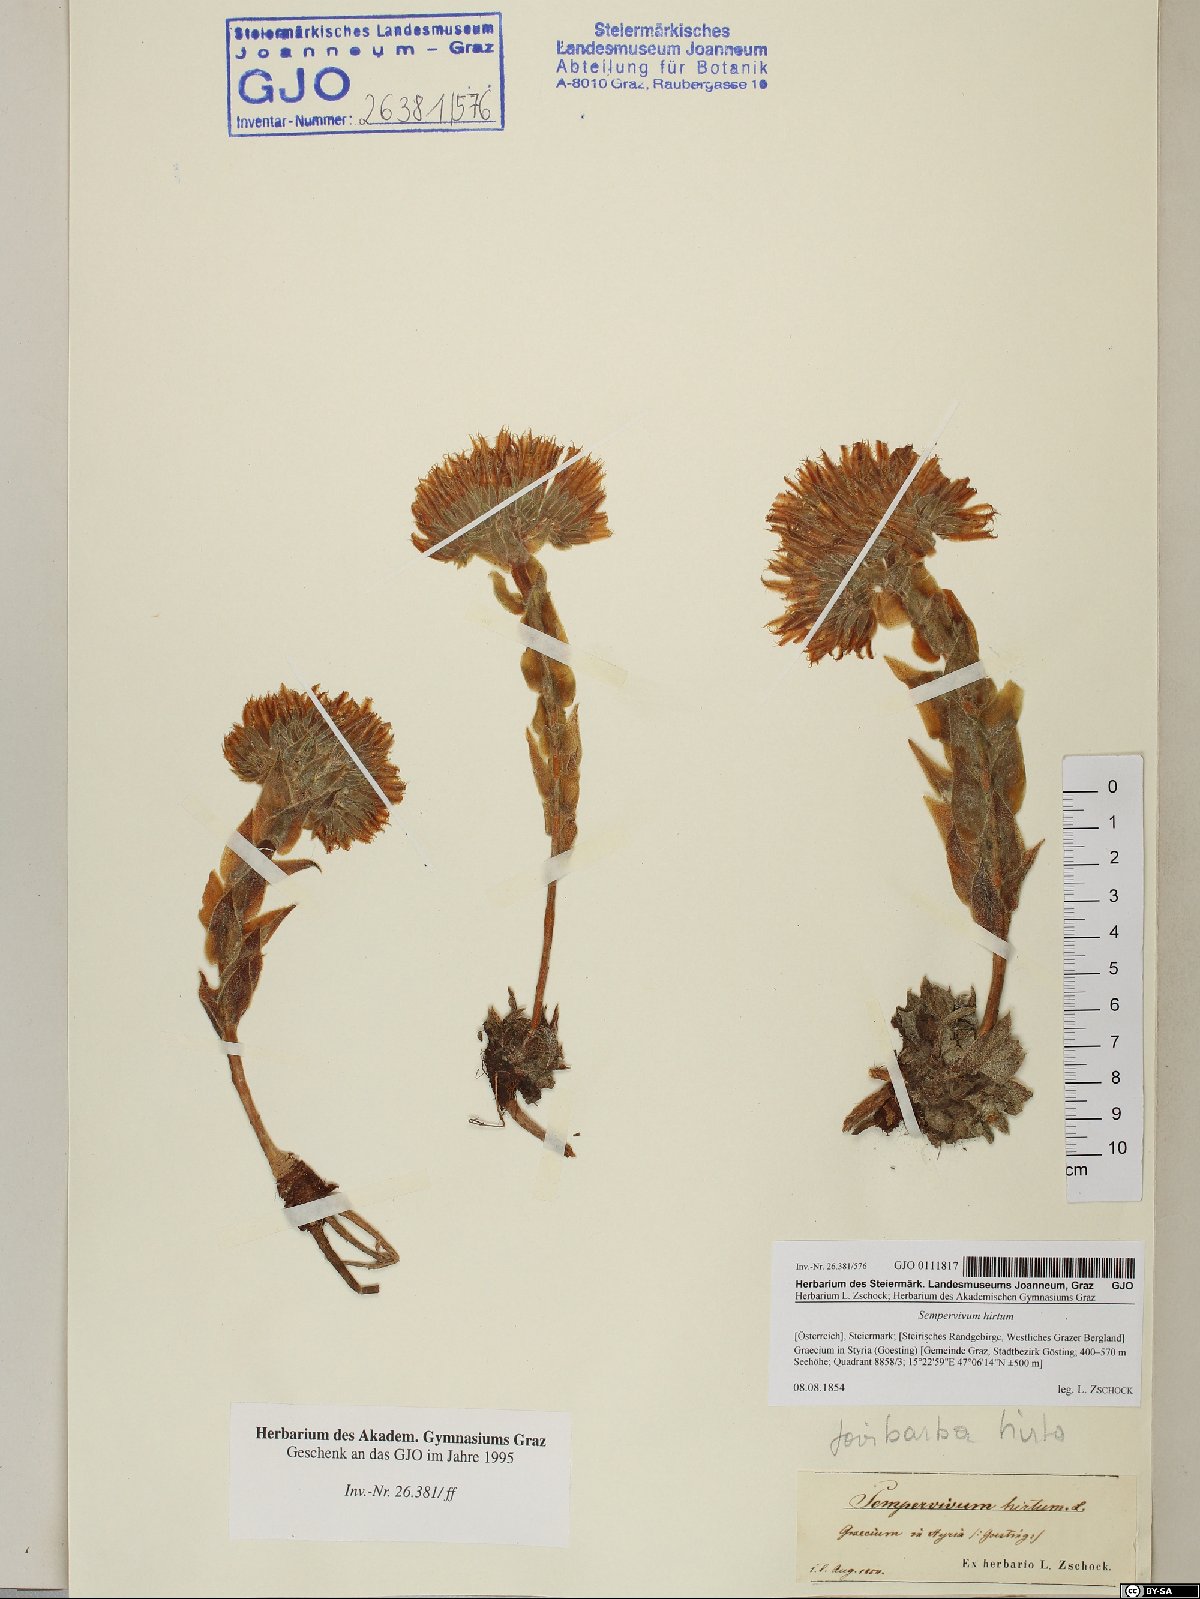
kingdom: Plantae
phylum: Tracheophyta
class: Magnoliopsida
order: Saxifragales
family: Crassulaceae
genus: Sempervivum
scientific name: Sempervivum globiferum
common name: Rolling hen-and-chicks
